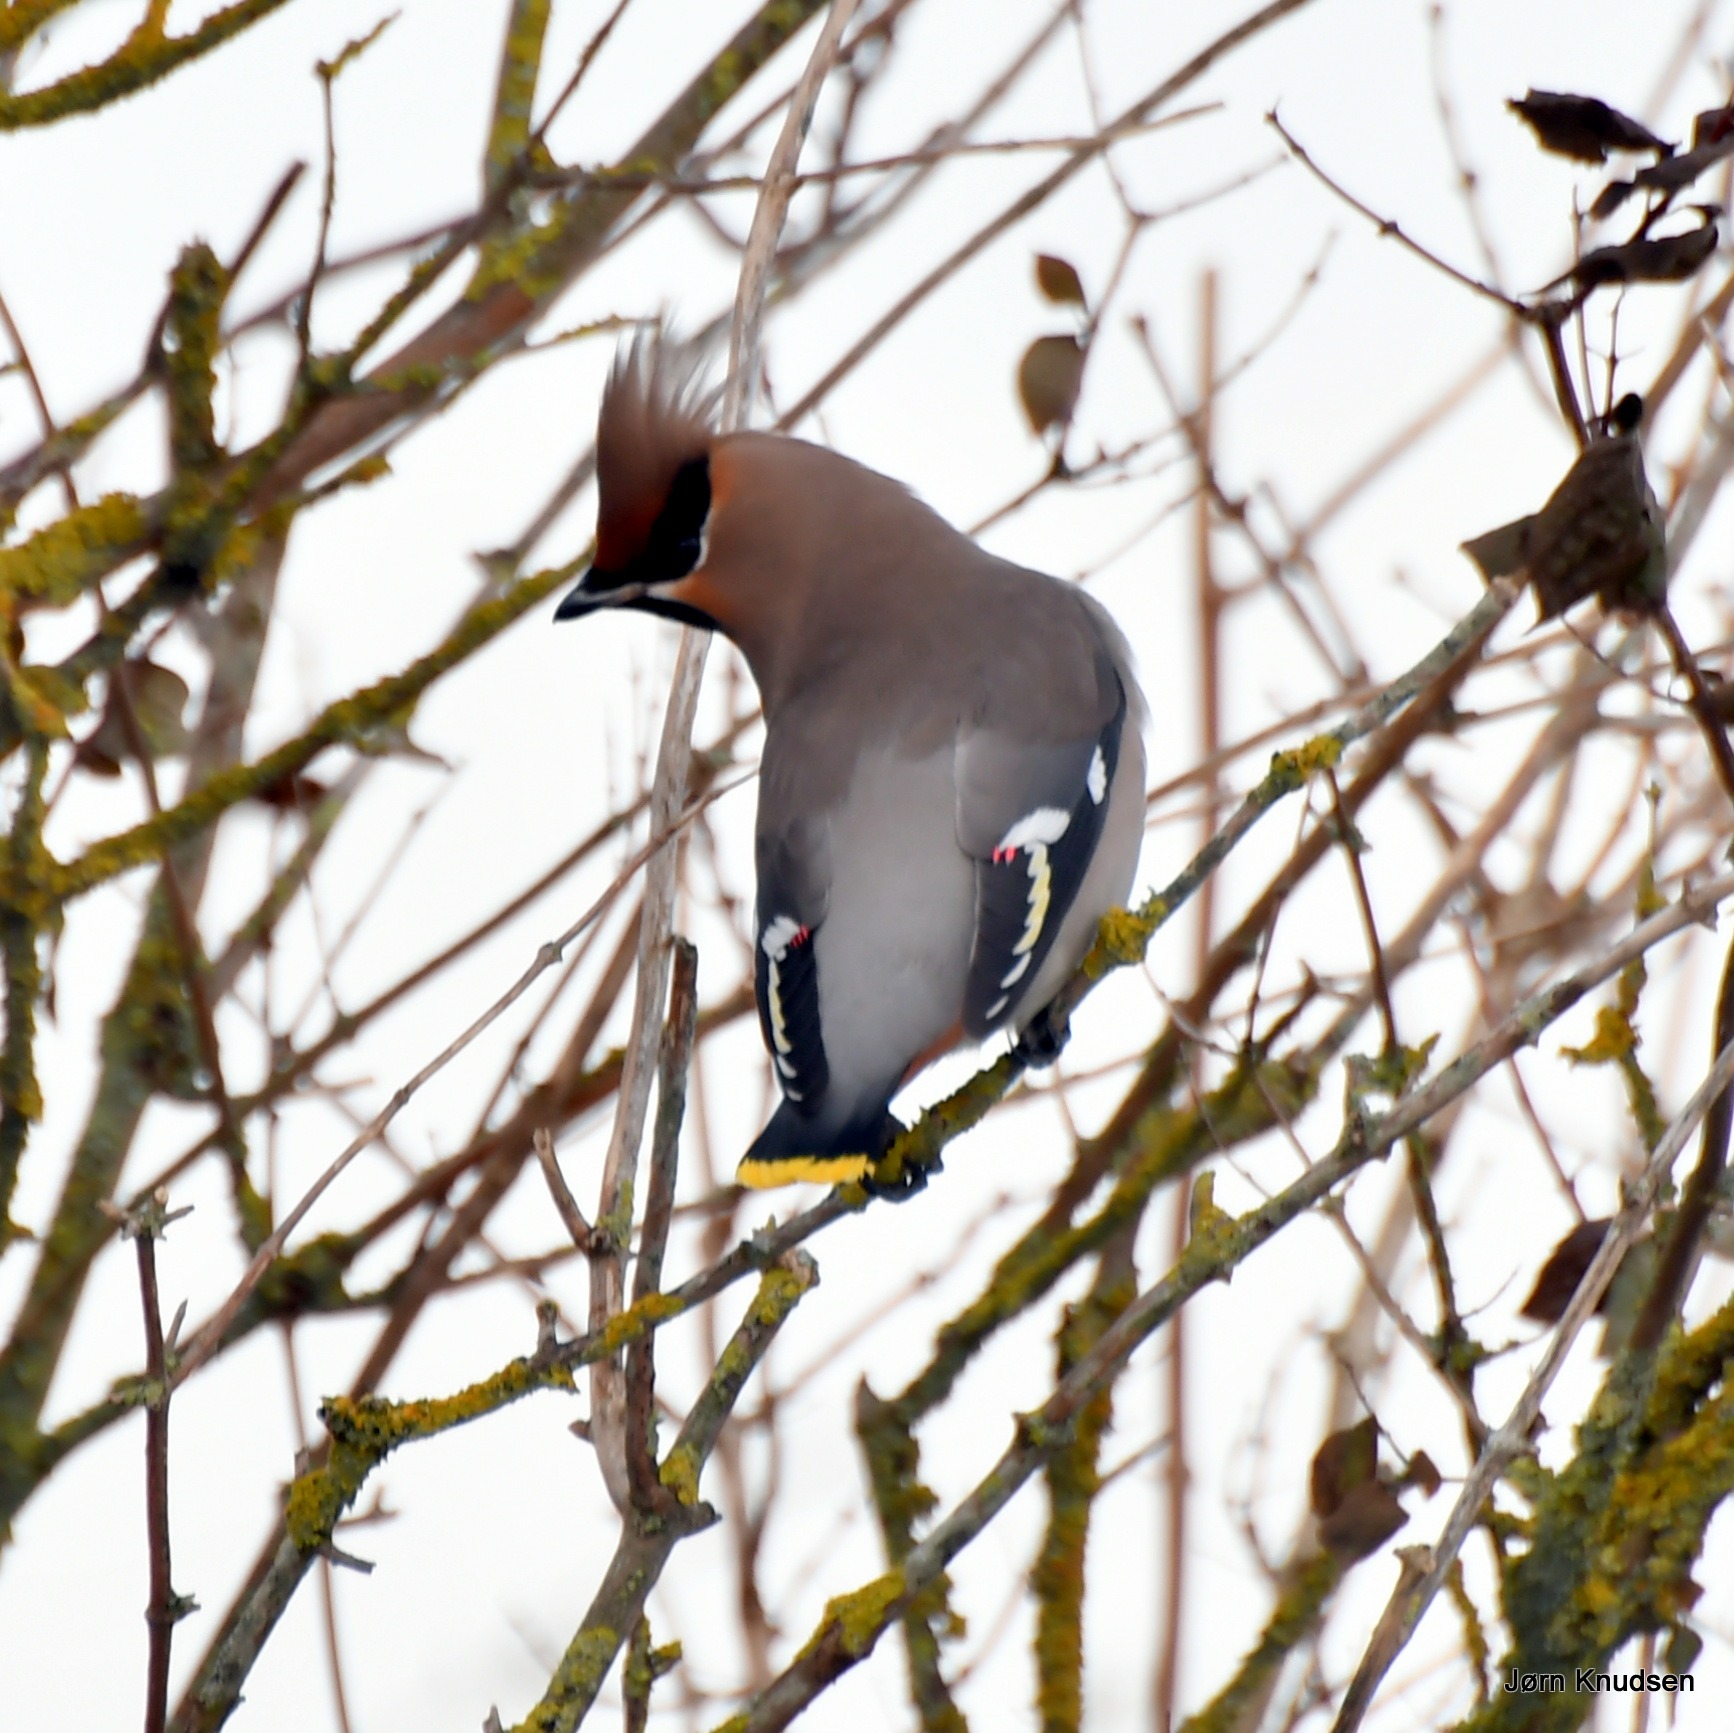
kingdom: Animalia
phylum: Chordata
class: Aves
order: Passeriformes
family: Bombycillidae
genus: Bombycilla
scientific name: Bombycilla garrulus
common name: Silkehale
